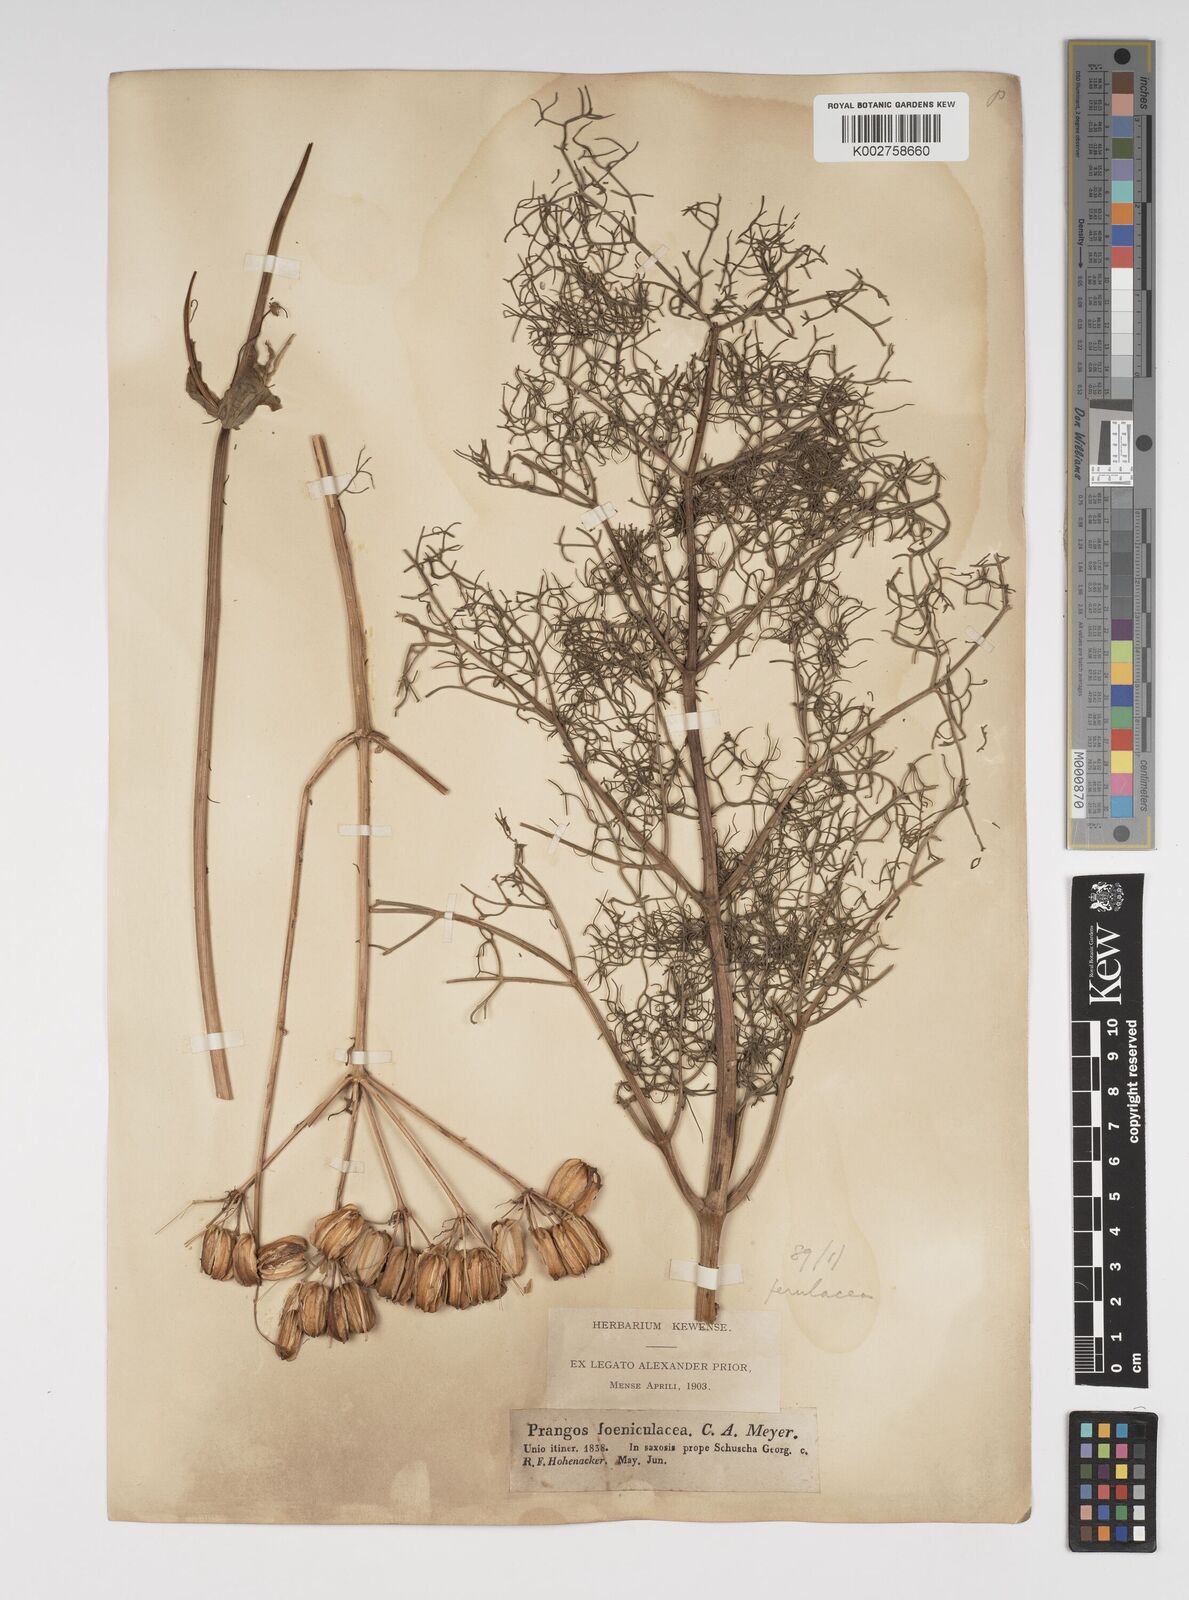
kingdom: Plantae
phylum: Tracheophyta
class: Magnoliopsida
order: Apiales
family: Apiaceae
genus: Prangos
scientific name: Prangos ferulacea
